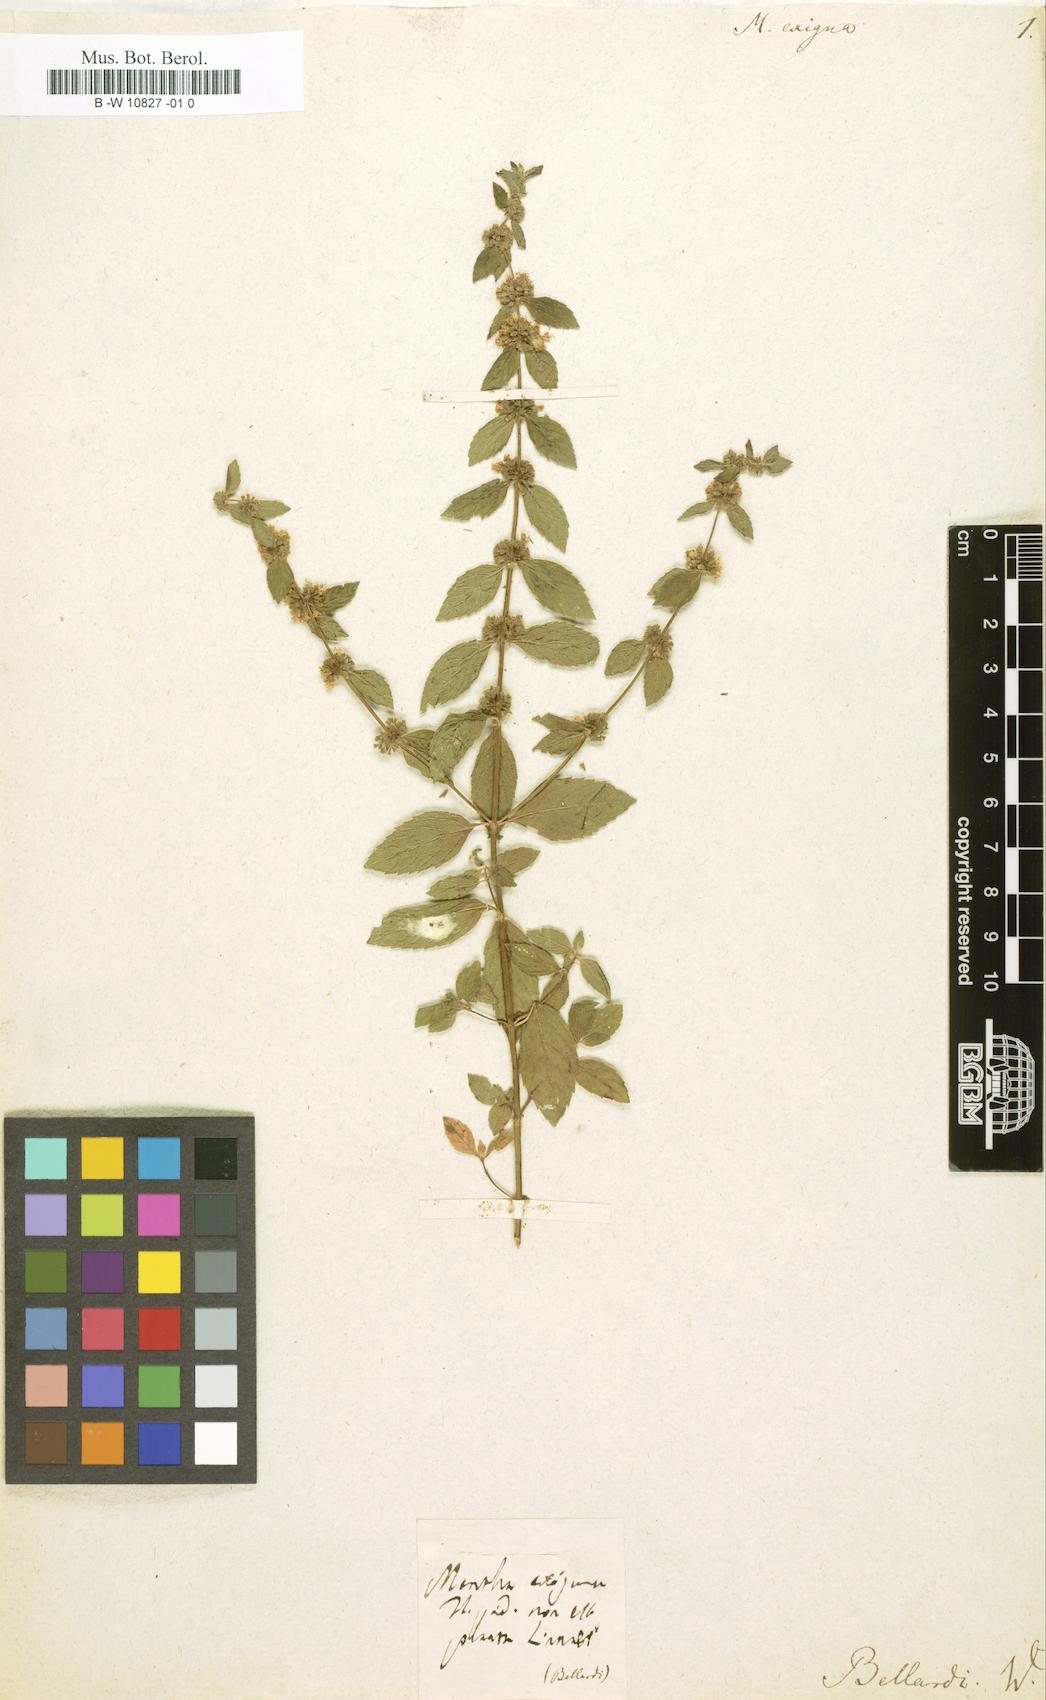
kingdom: Plantae
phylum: Tracheophyta
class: Magnoliopsida
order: Lamiales
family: Lamiaceae
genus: Mentha
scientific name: Mentha
